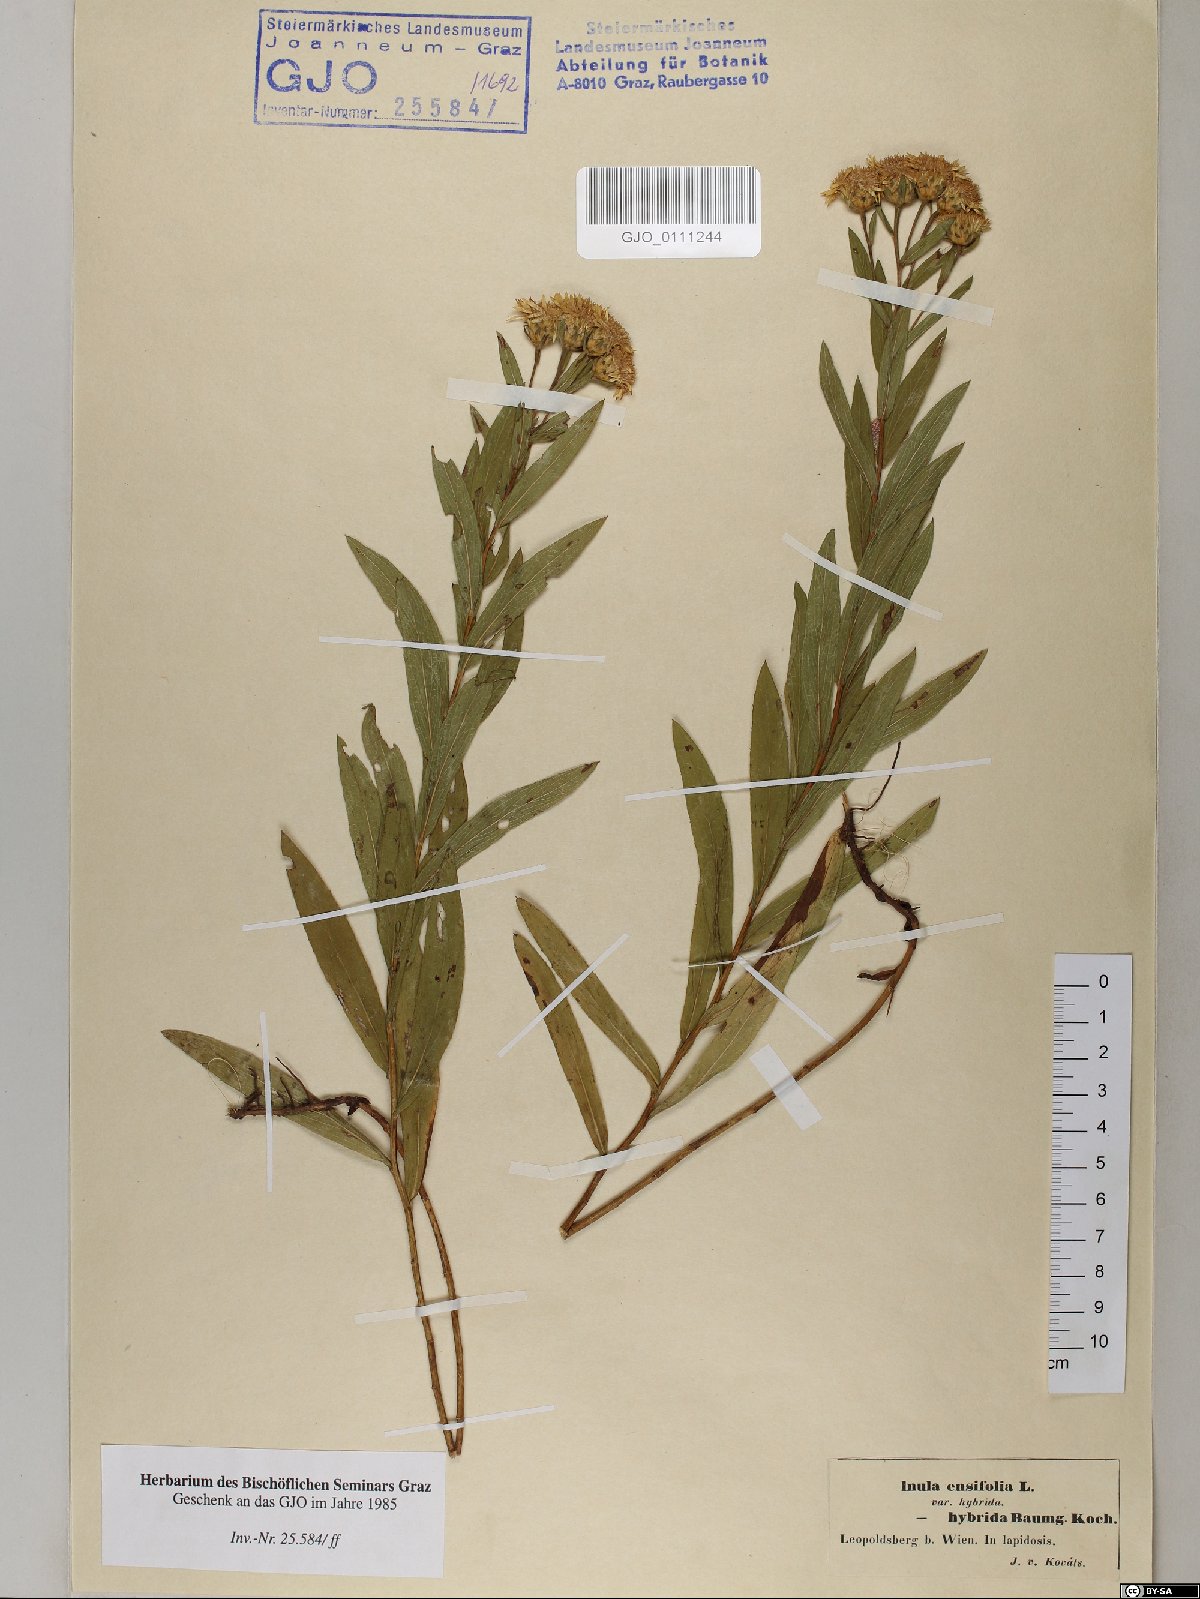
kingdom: Plantae
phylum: Tracheophyta
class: Magnoliopsida
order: Asterales
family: Asteraceae
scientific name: Asteraceae
